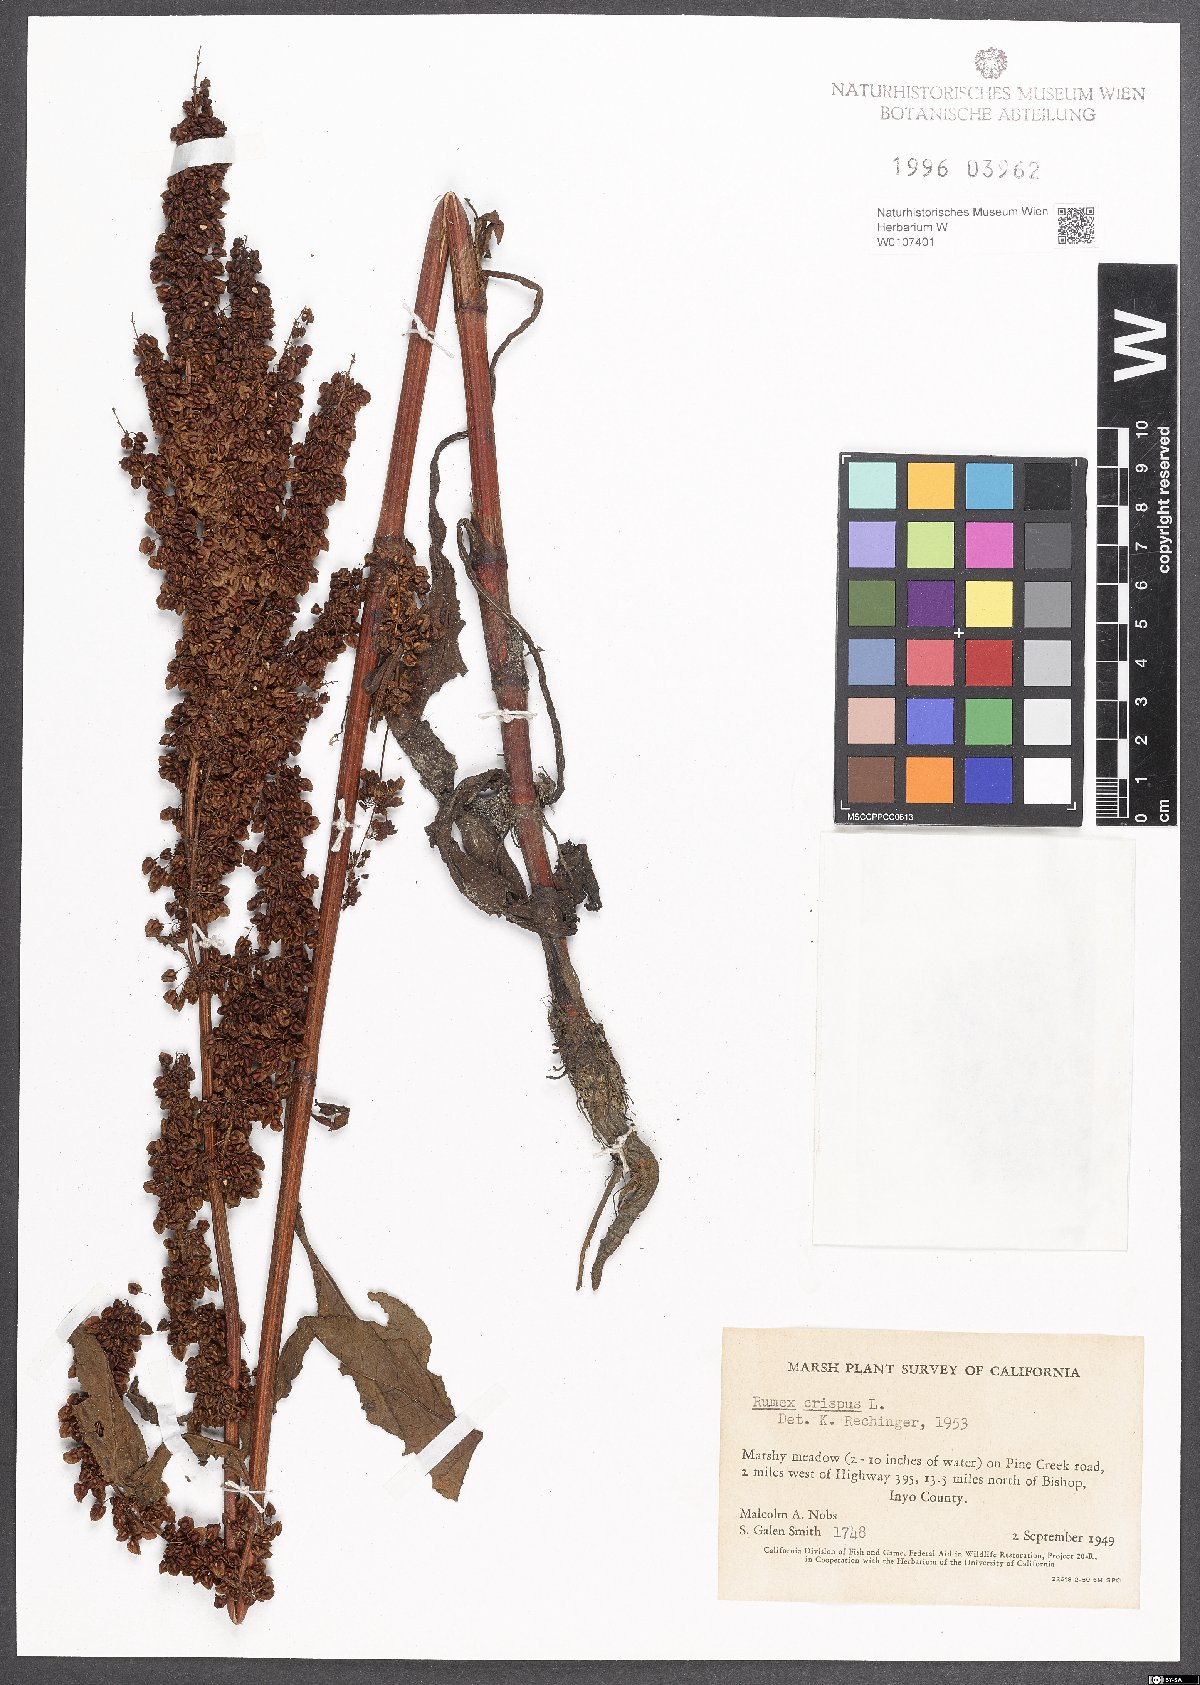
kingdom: Plantae
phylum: Tracheophyta
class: Magnoliopsida
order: Caryophyllales
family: Polygonaceae
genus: Rumex
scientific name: Rumex crispus
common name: Curled dock
